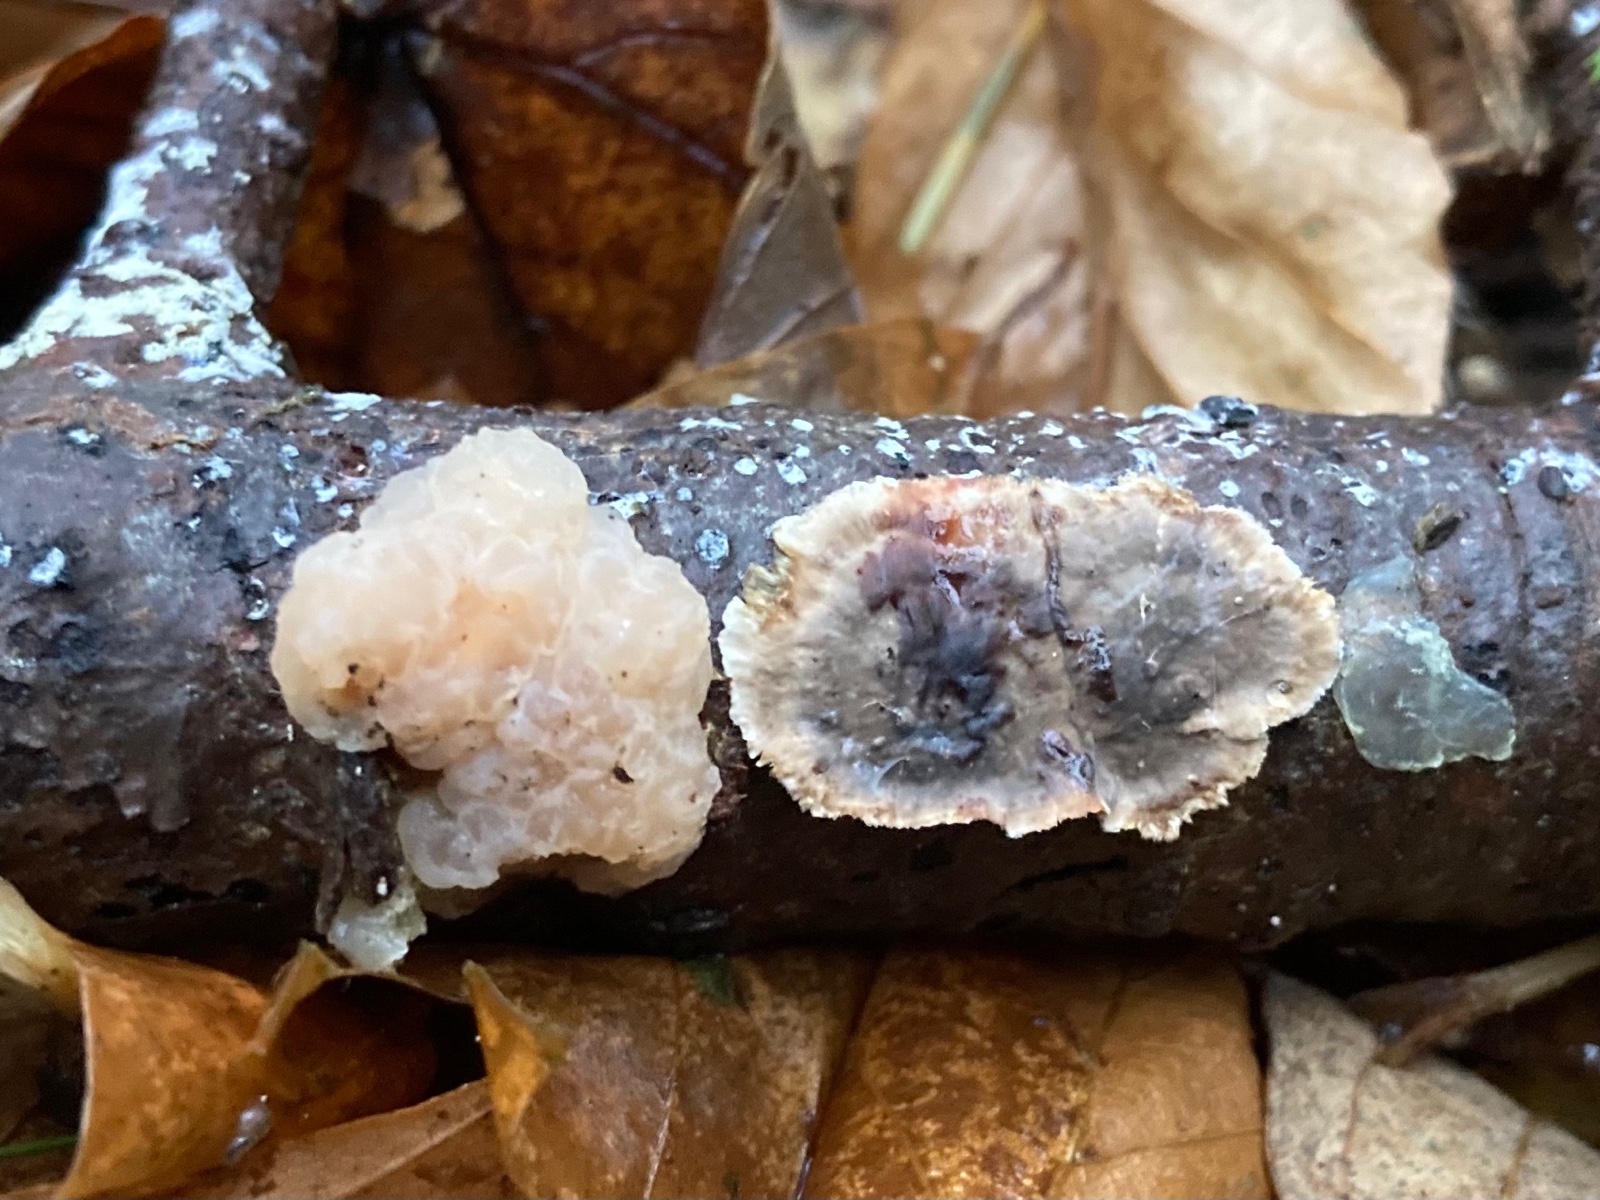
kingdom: Fungi
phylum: Basidiomycota
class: Agaricomycetes
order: Russulales
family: Stereaceae
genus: Stereum
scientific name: Stereum sanguinolentum
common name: blødende lædersvamp
